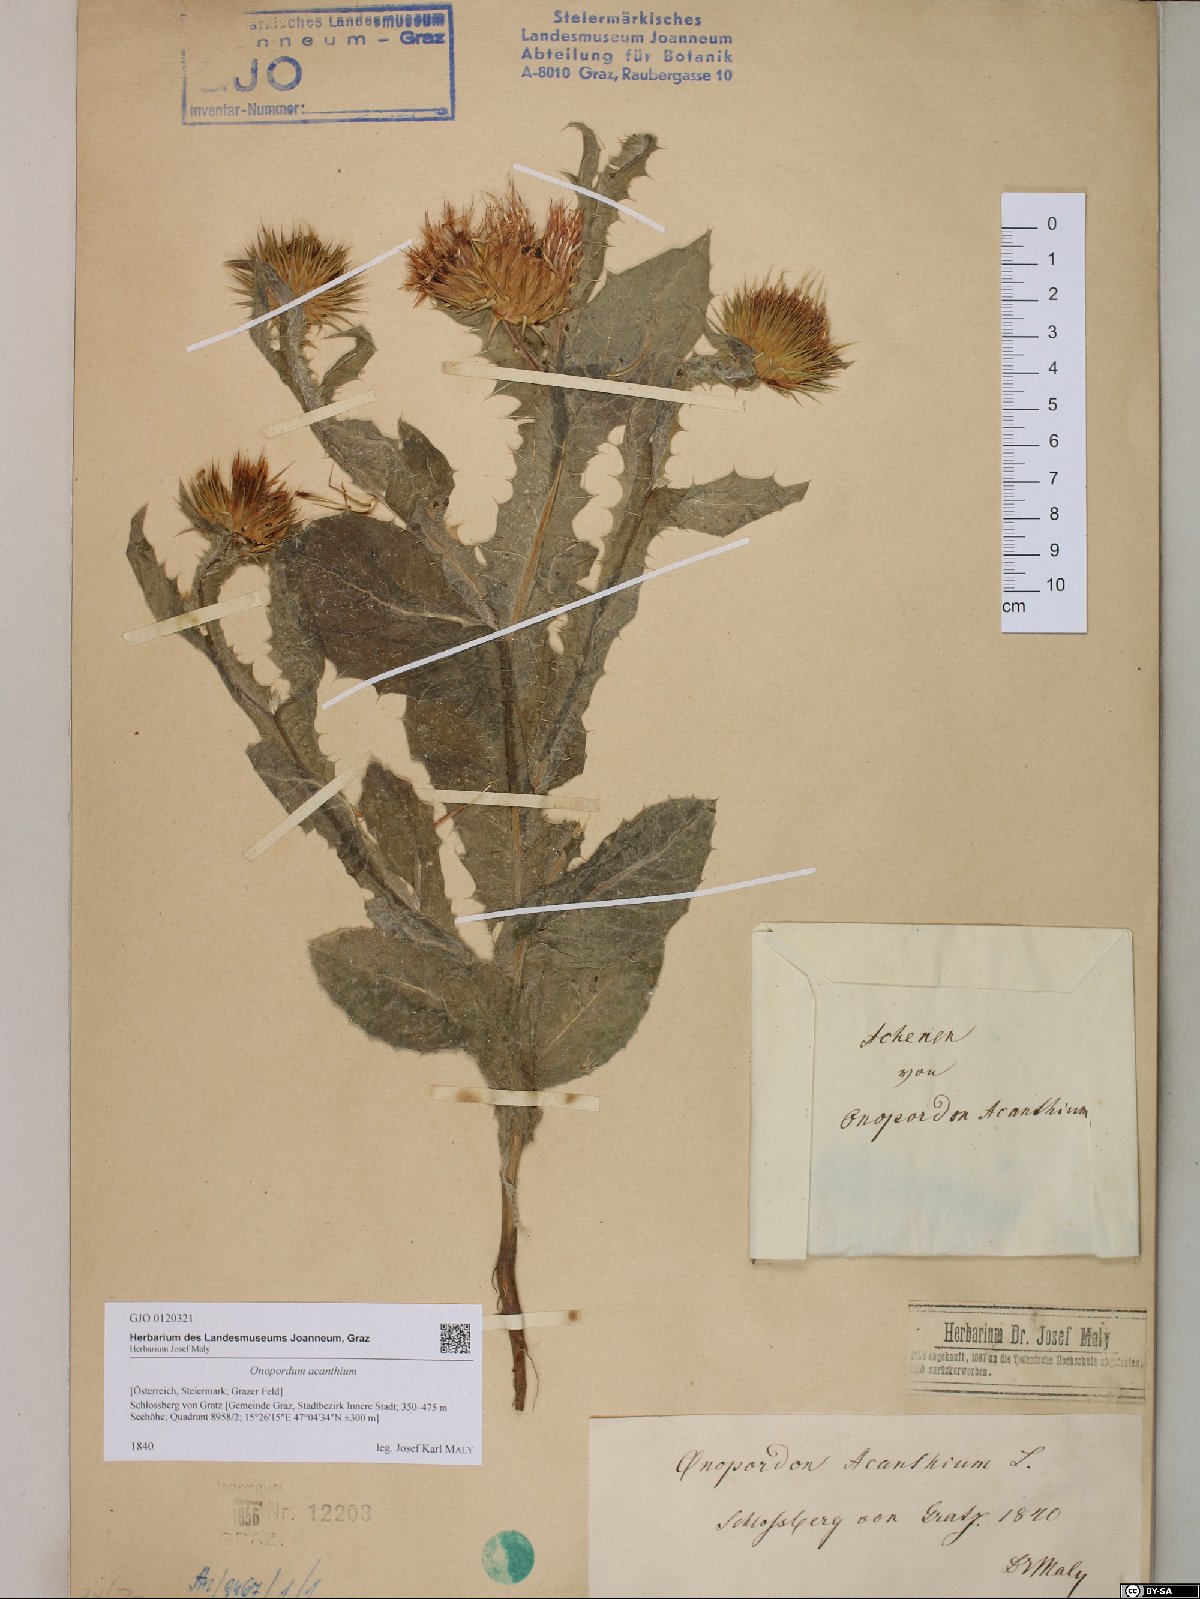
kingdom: Plantae
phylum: Tracheophyta
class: Magnoliopsida
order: Asterales
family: Asteraceae
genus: Onopordum
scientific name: Onopordum acanthium
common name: Scotch thistle
